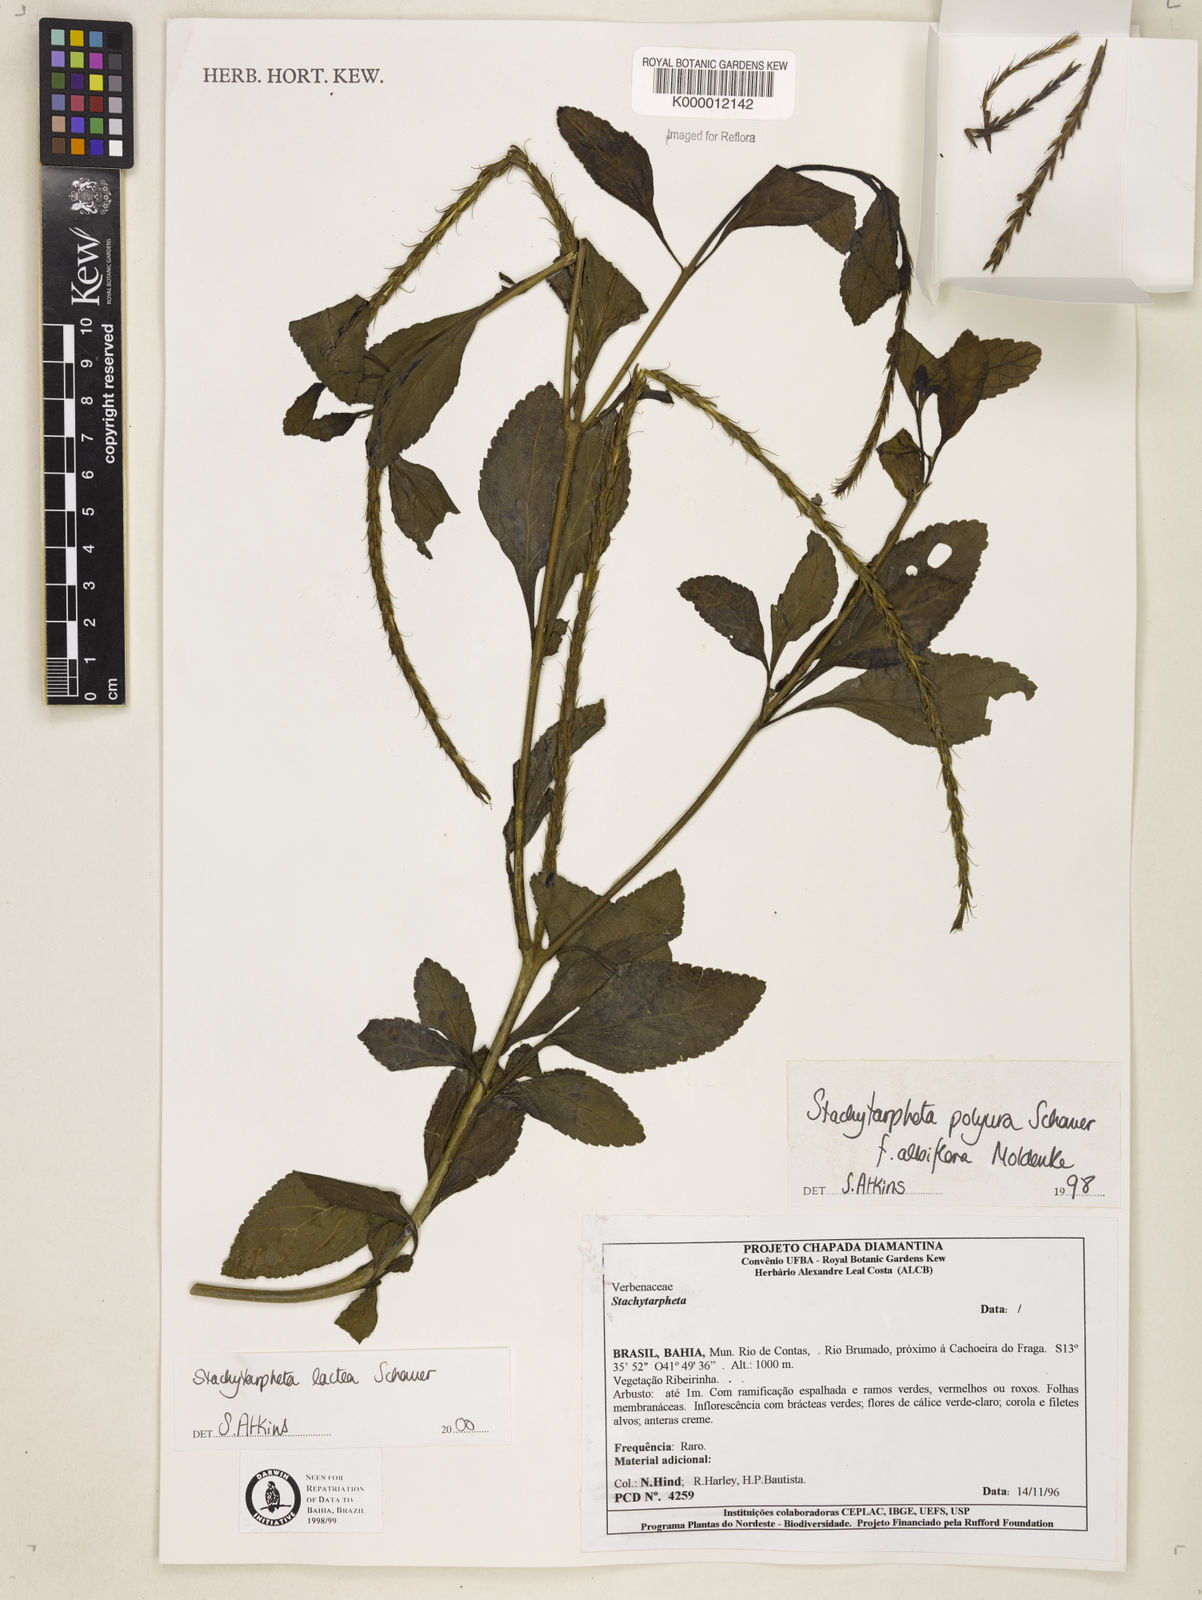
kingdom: Plantae
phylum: Tracheophyta
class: Magnoliopsida
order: Lamiales
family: Verbenaceae
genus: Stachytarpheta
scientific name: Stachytarpheta polyura
